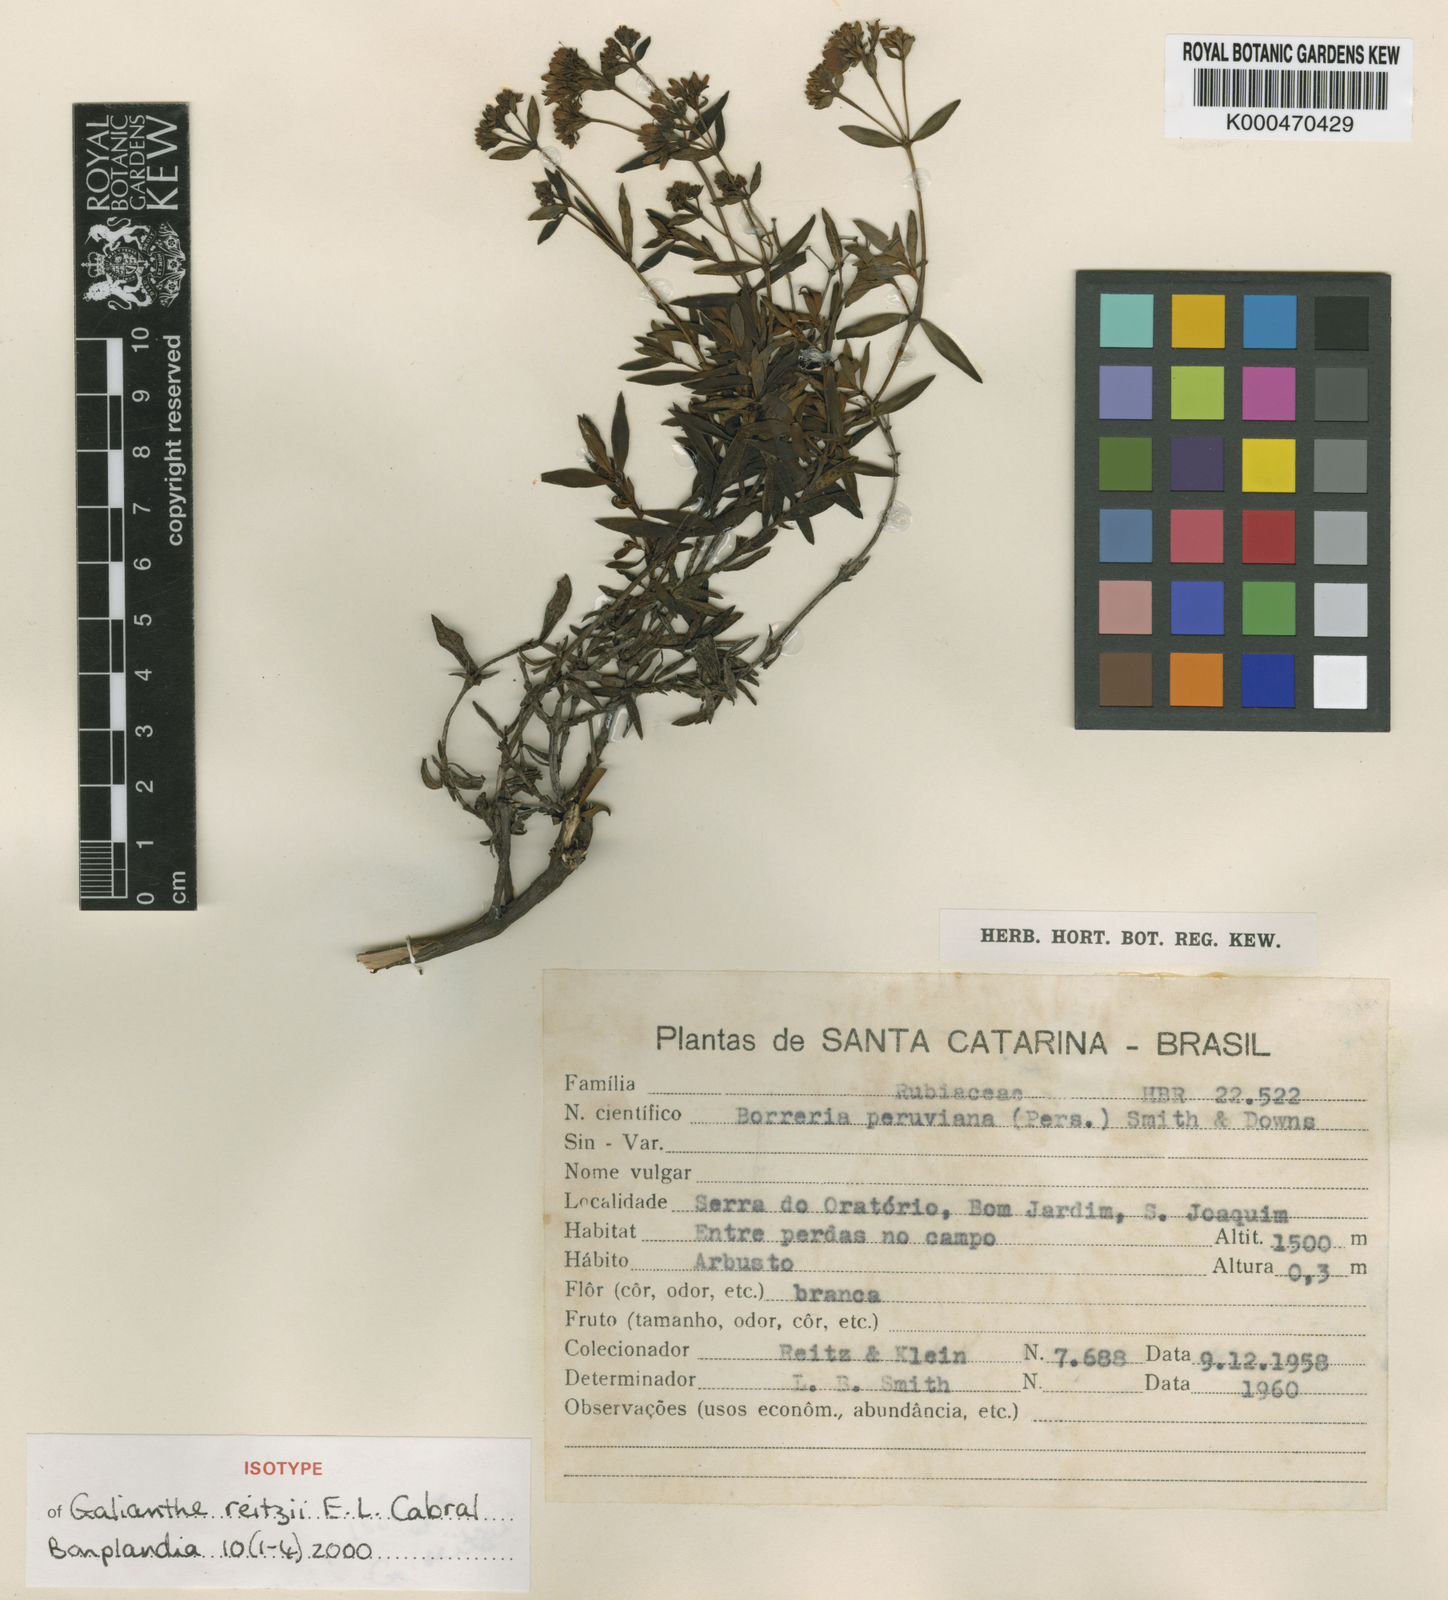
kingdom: Plantae
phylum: Tracheophyta
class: Magnoliopsida
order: Gentianales
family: Rubiaceae
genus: Galianthe
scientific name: Galianthe reitzii
